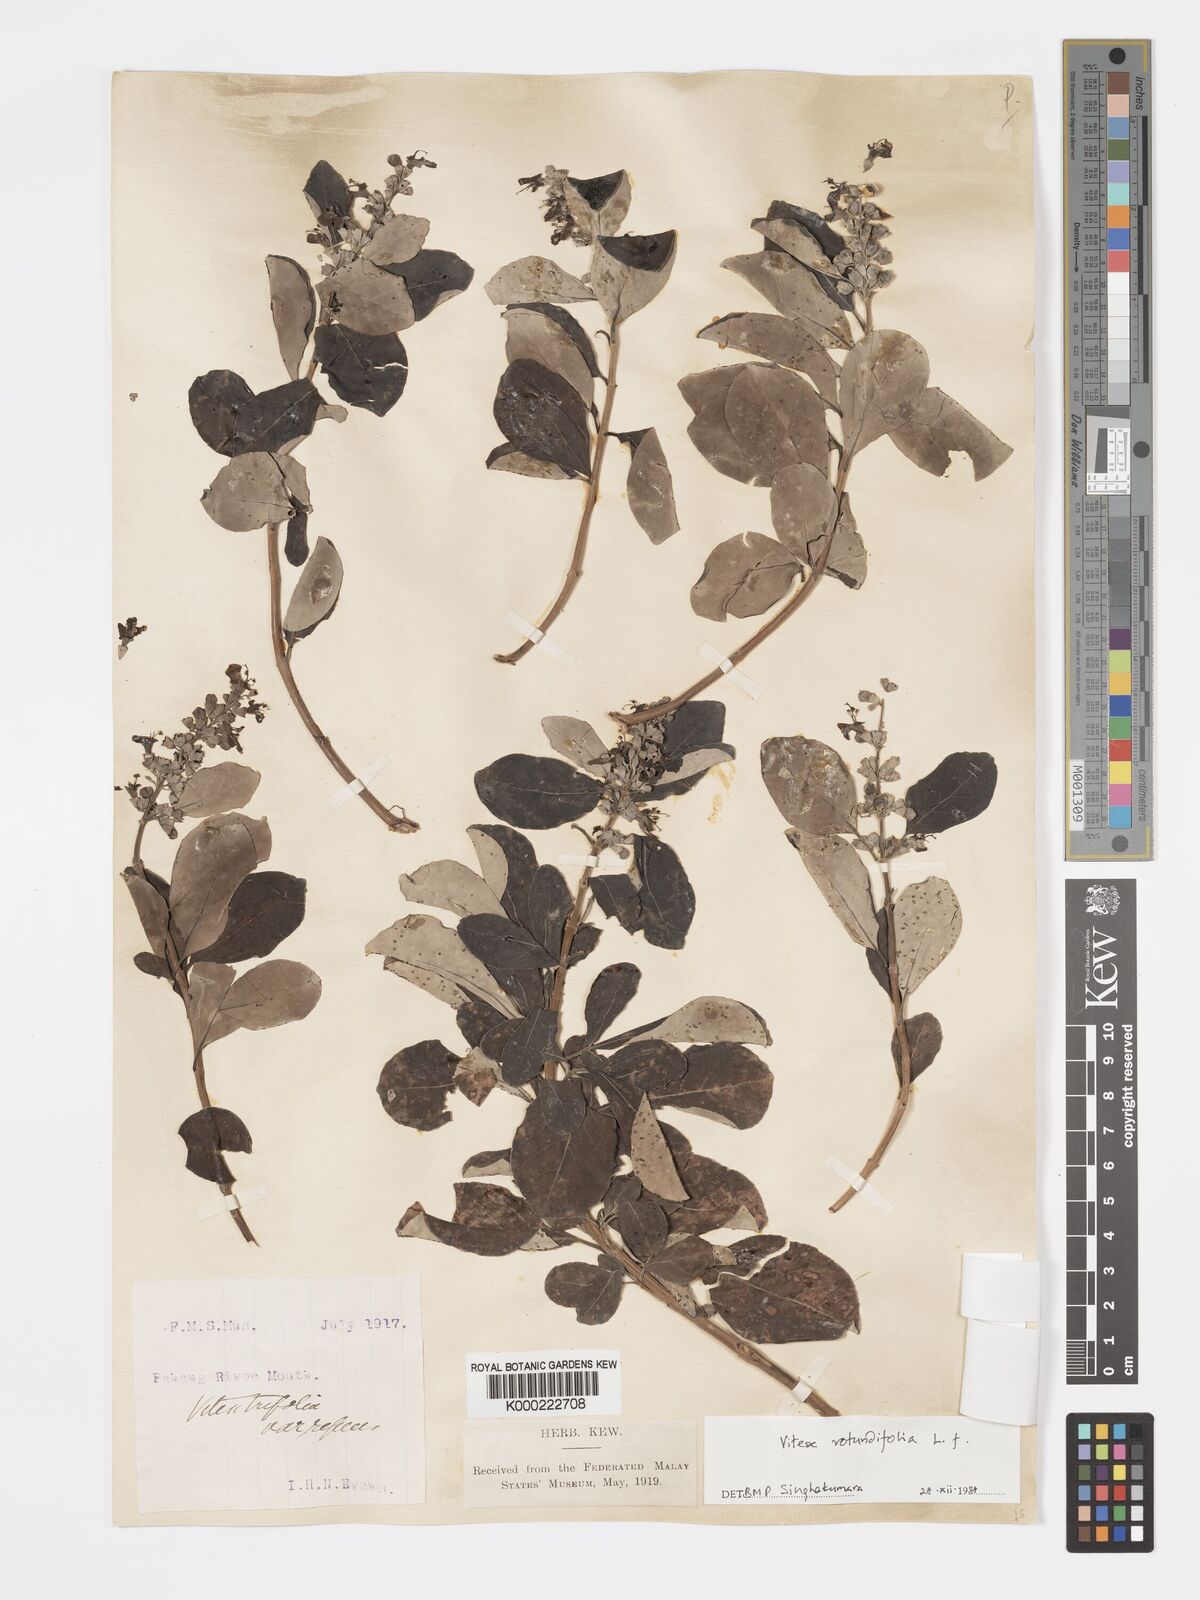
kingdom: Plantae
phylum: Tracheophyta
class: Magnoliopsida
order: Lamiales
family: Lamiaceae
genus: Vitex
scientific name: Vitex rotundifolia
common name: Beach vitex
